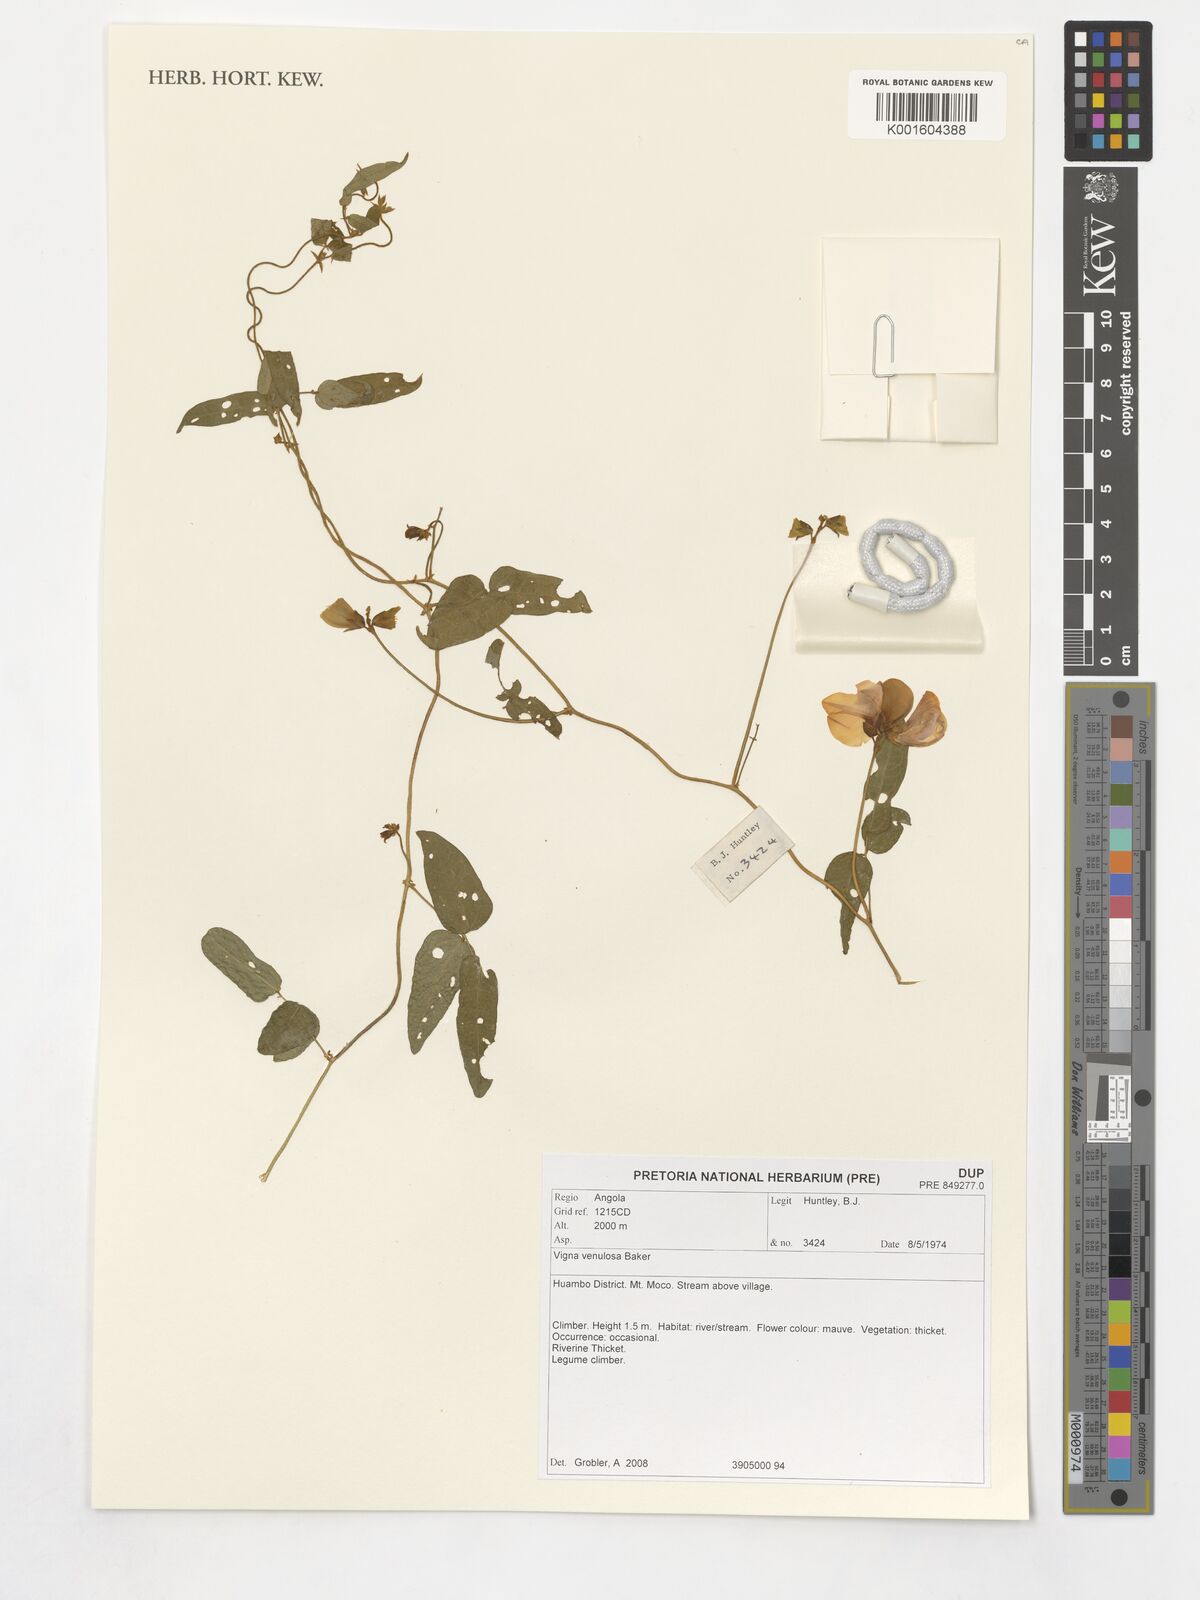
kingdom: Plantae
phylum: Tracheophyta
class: Magnoliopsida
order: Fabales
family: Fabaceae
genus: Vigna
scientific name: Vigna venulosa
